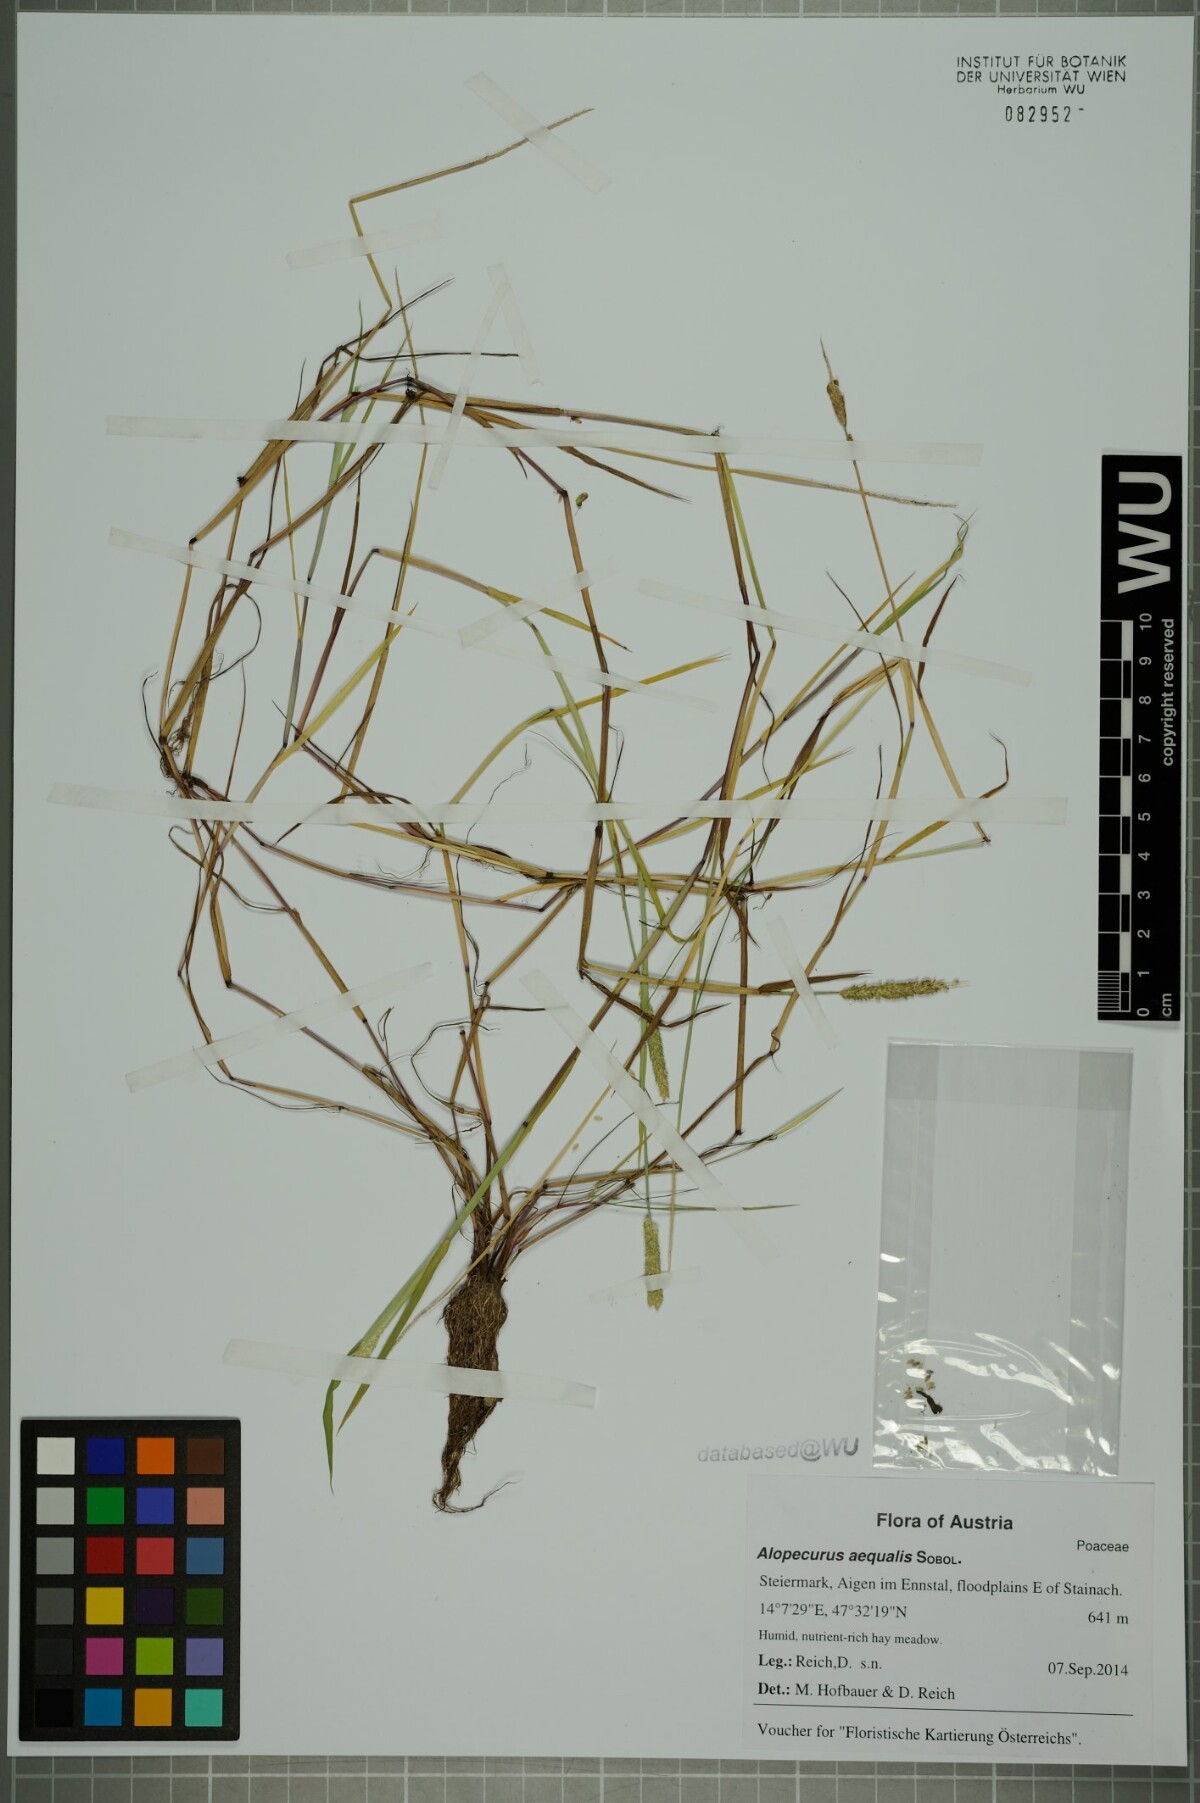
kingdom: Plantae
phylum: Tracheophyta
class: Liliopsida
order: Poales
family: Poaceae
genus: Alopecurus
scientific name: Alopecurus aequalis
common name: Orange foxtail
